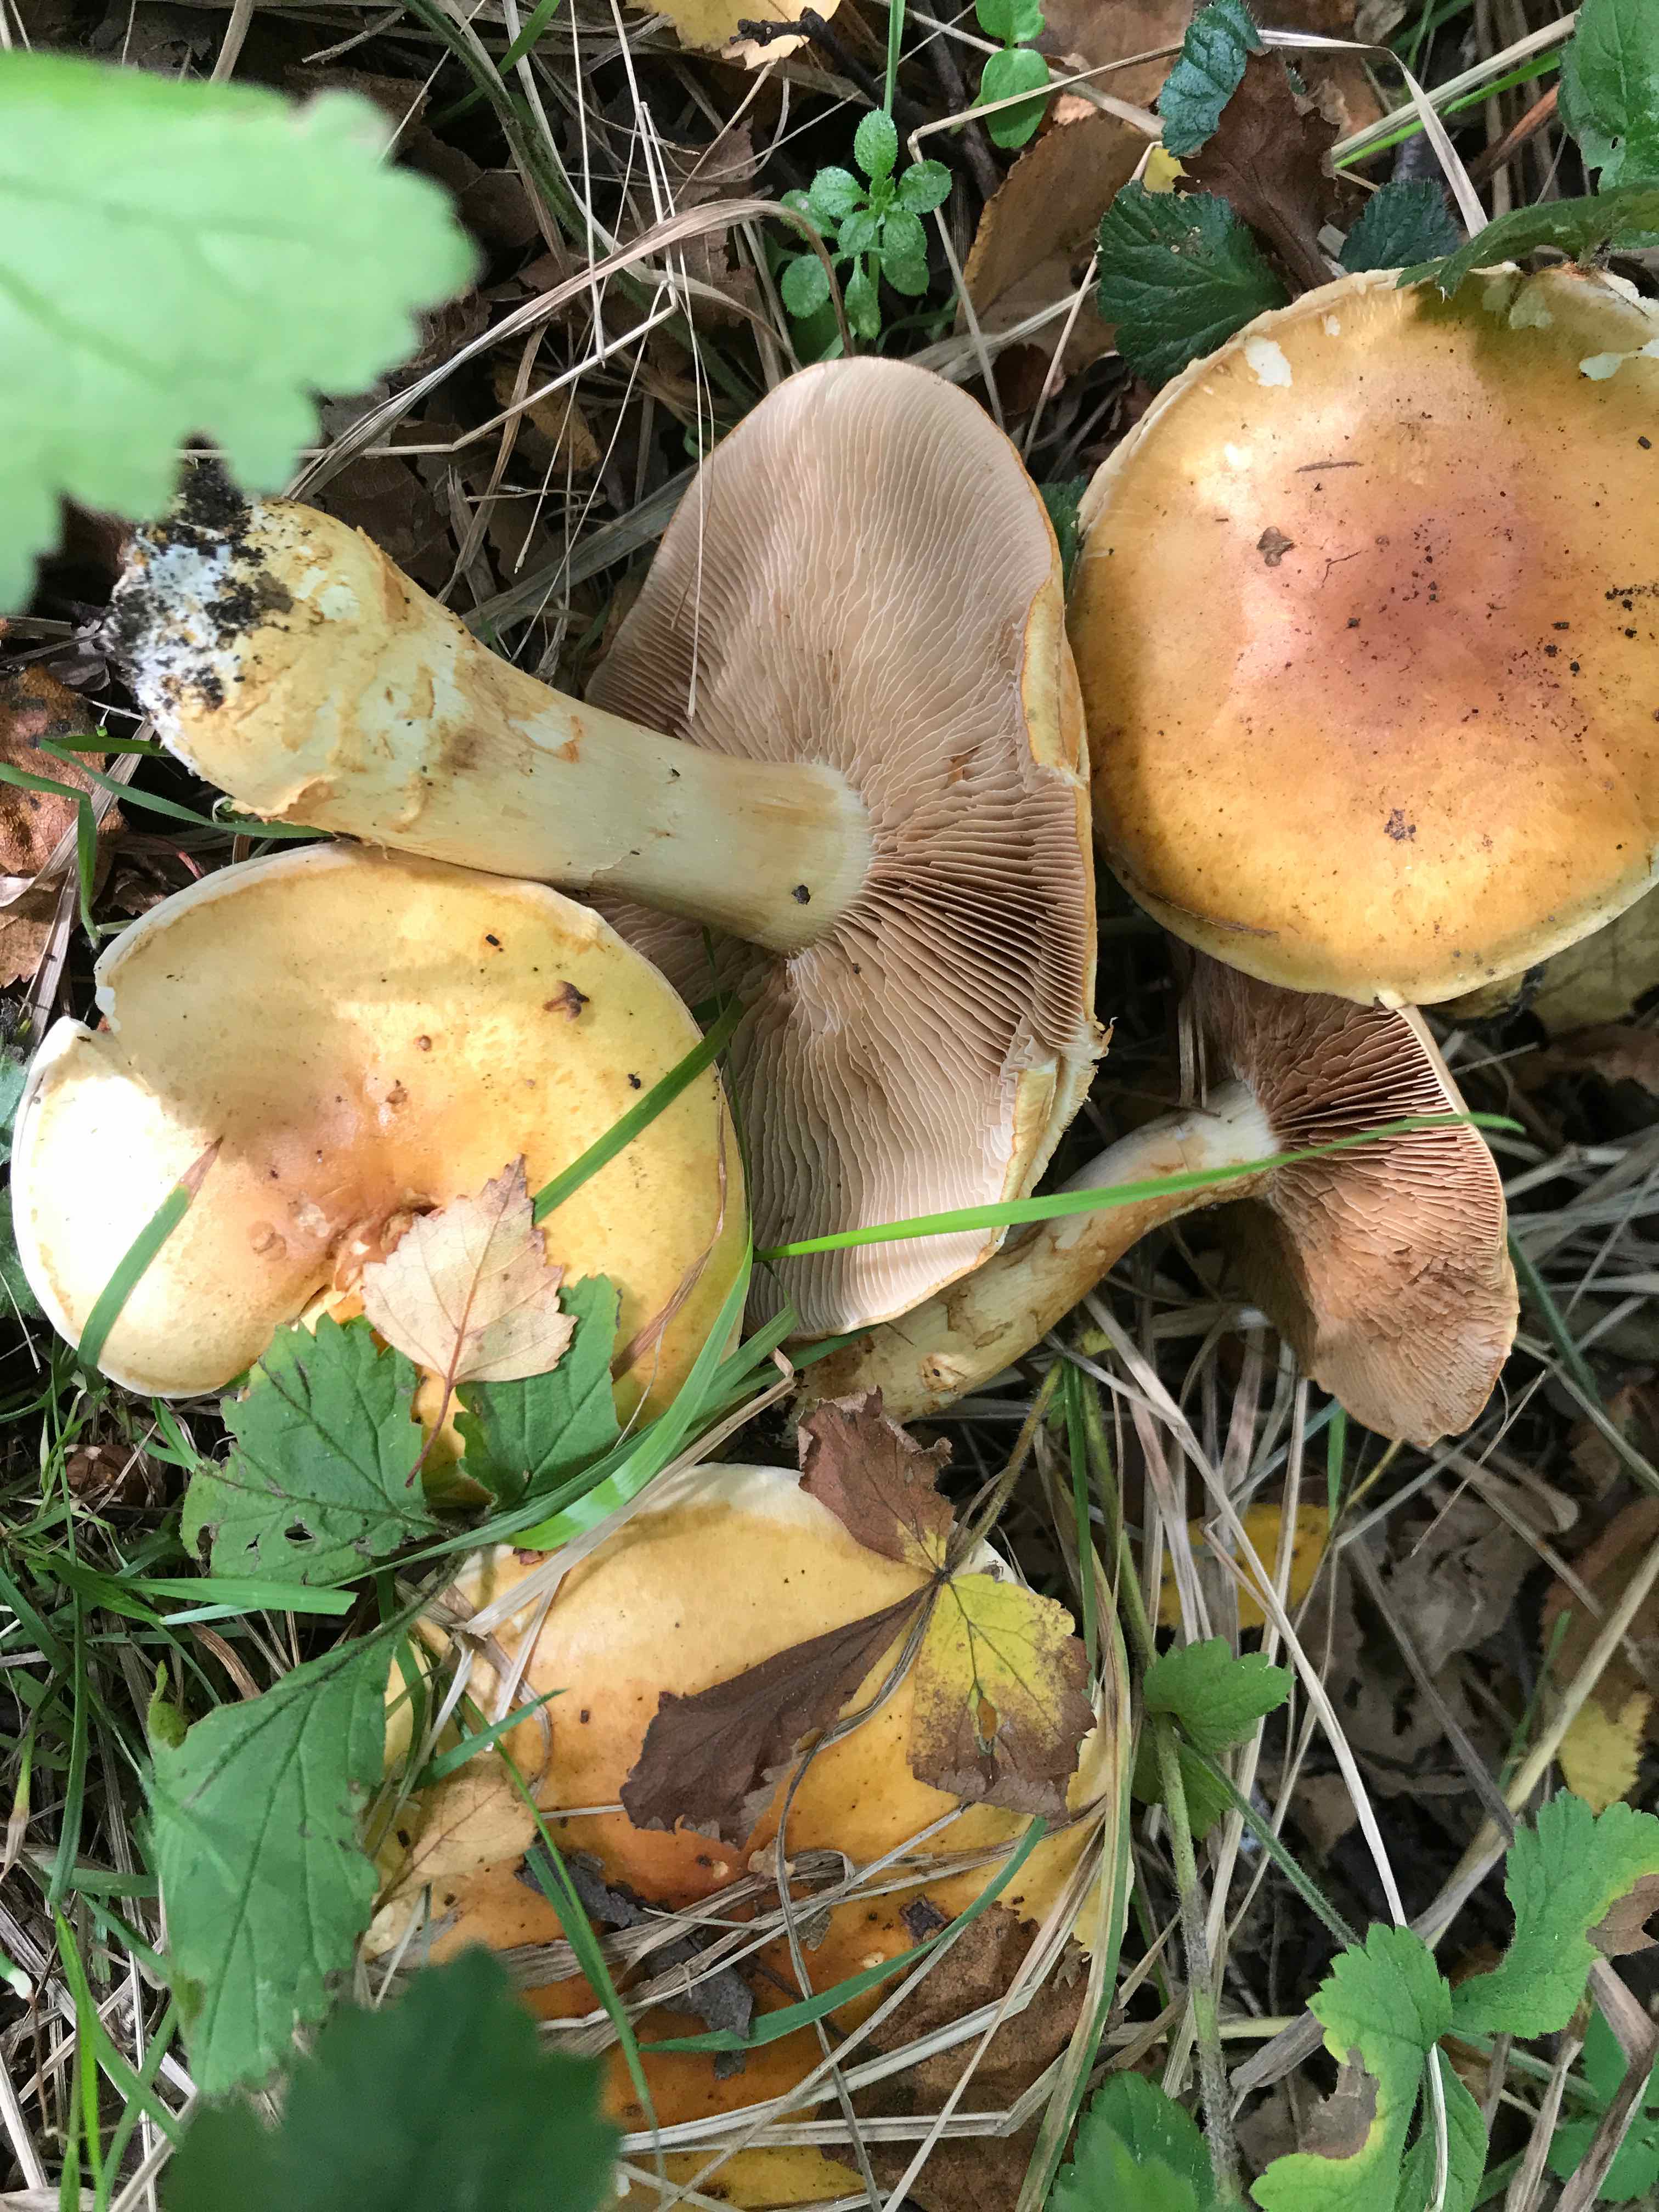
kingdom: Fungi
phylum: Basidiomycota
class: Agaricomycetes
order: Agaricales
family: Cortinariaceae
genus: Phlegmacium
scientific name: Phlegmacium triumphans
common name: gulbæltet slørhat
